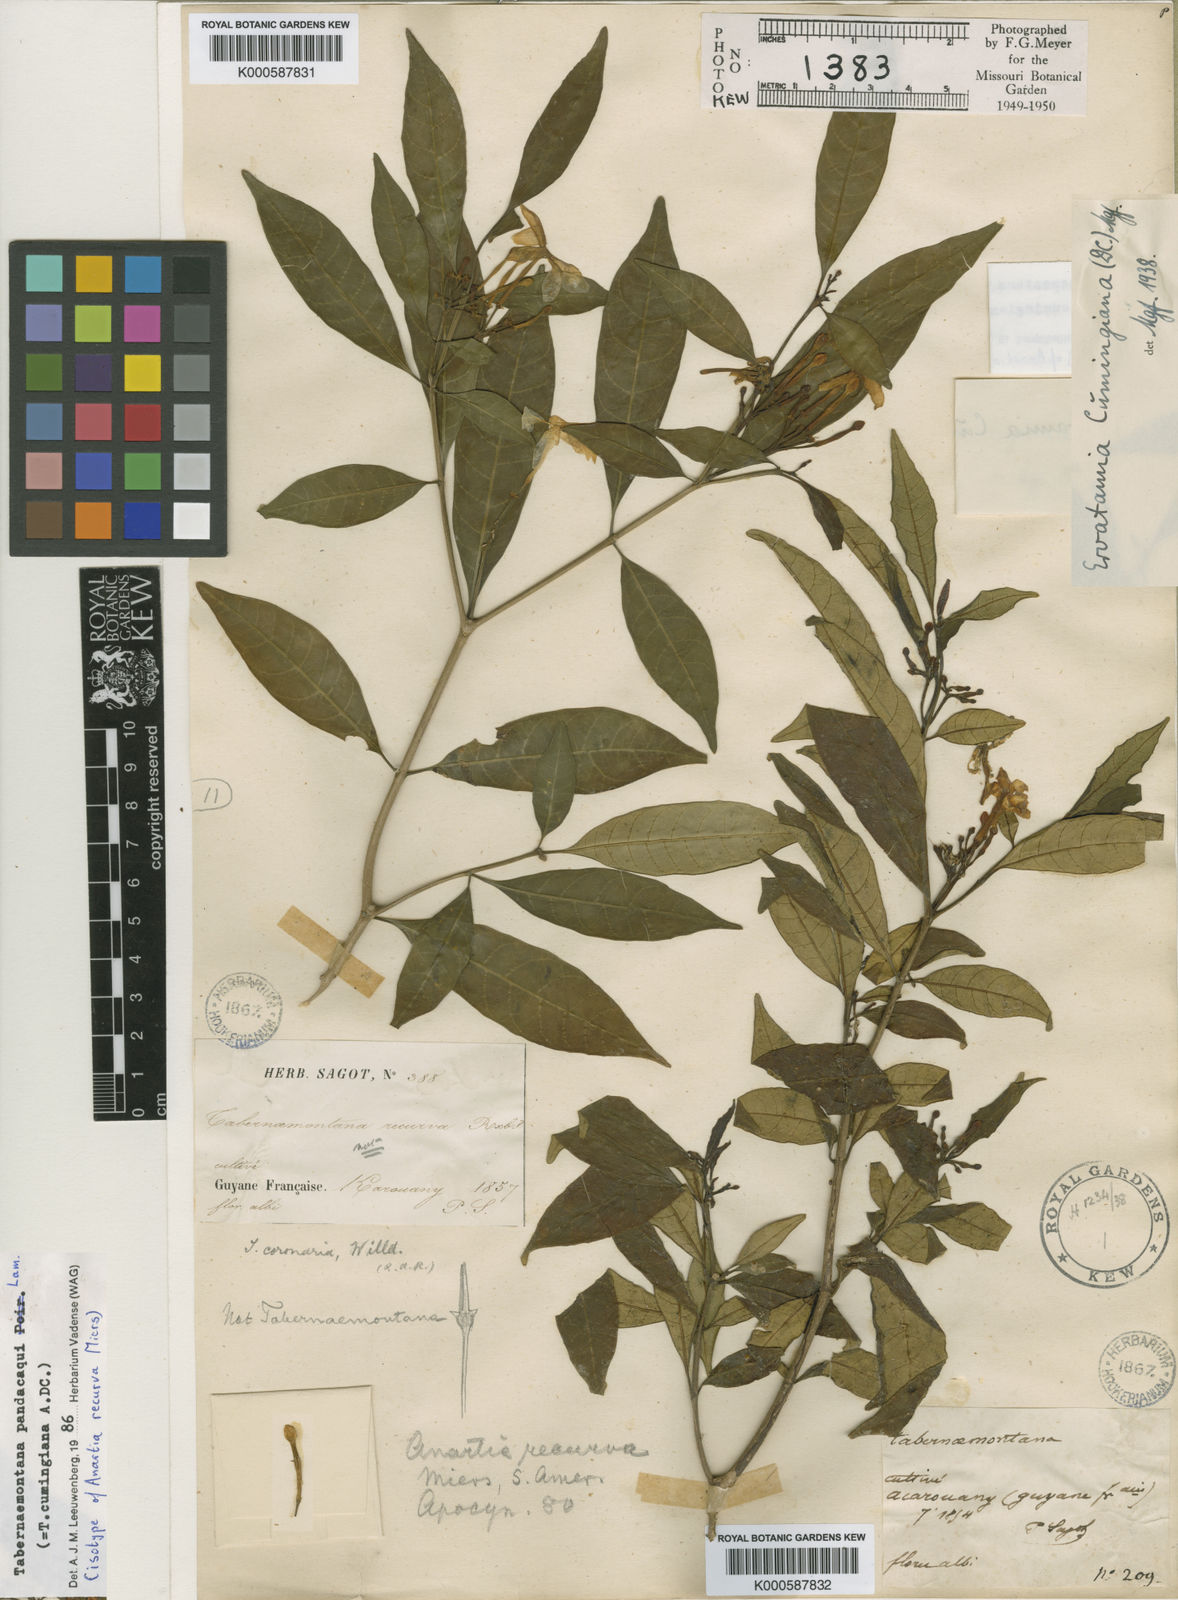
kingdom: Plantae
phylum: Tracheophyta
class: Magnoliopsida
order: Gentianales
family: Apocynaceae
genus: Tabernaemontana
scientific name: Tabernaemontana
